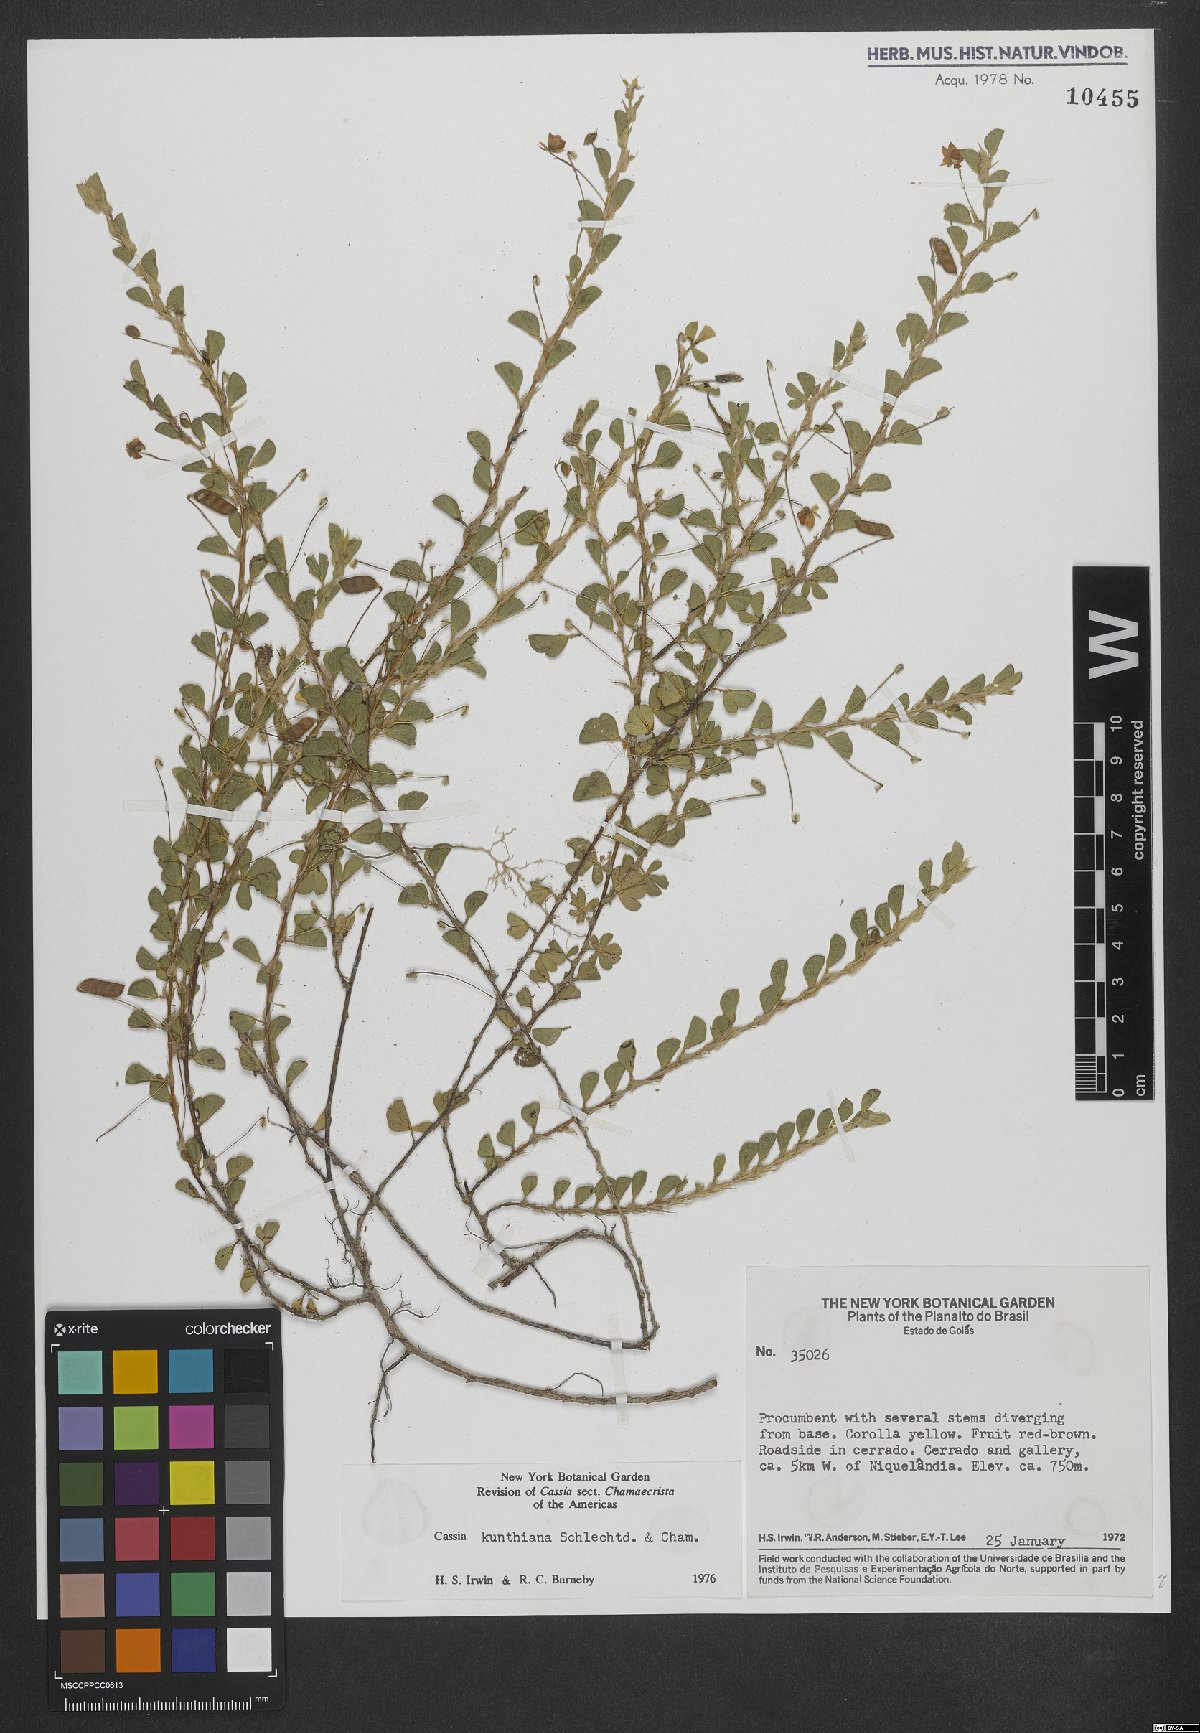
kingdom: Plantae
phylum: Tracheophyta
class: Magnoliopsida
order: Fabales
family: Fabaceae
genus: Chamaecrista
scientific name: Chamaecrista kunthiana
